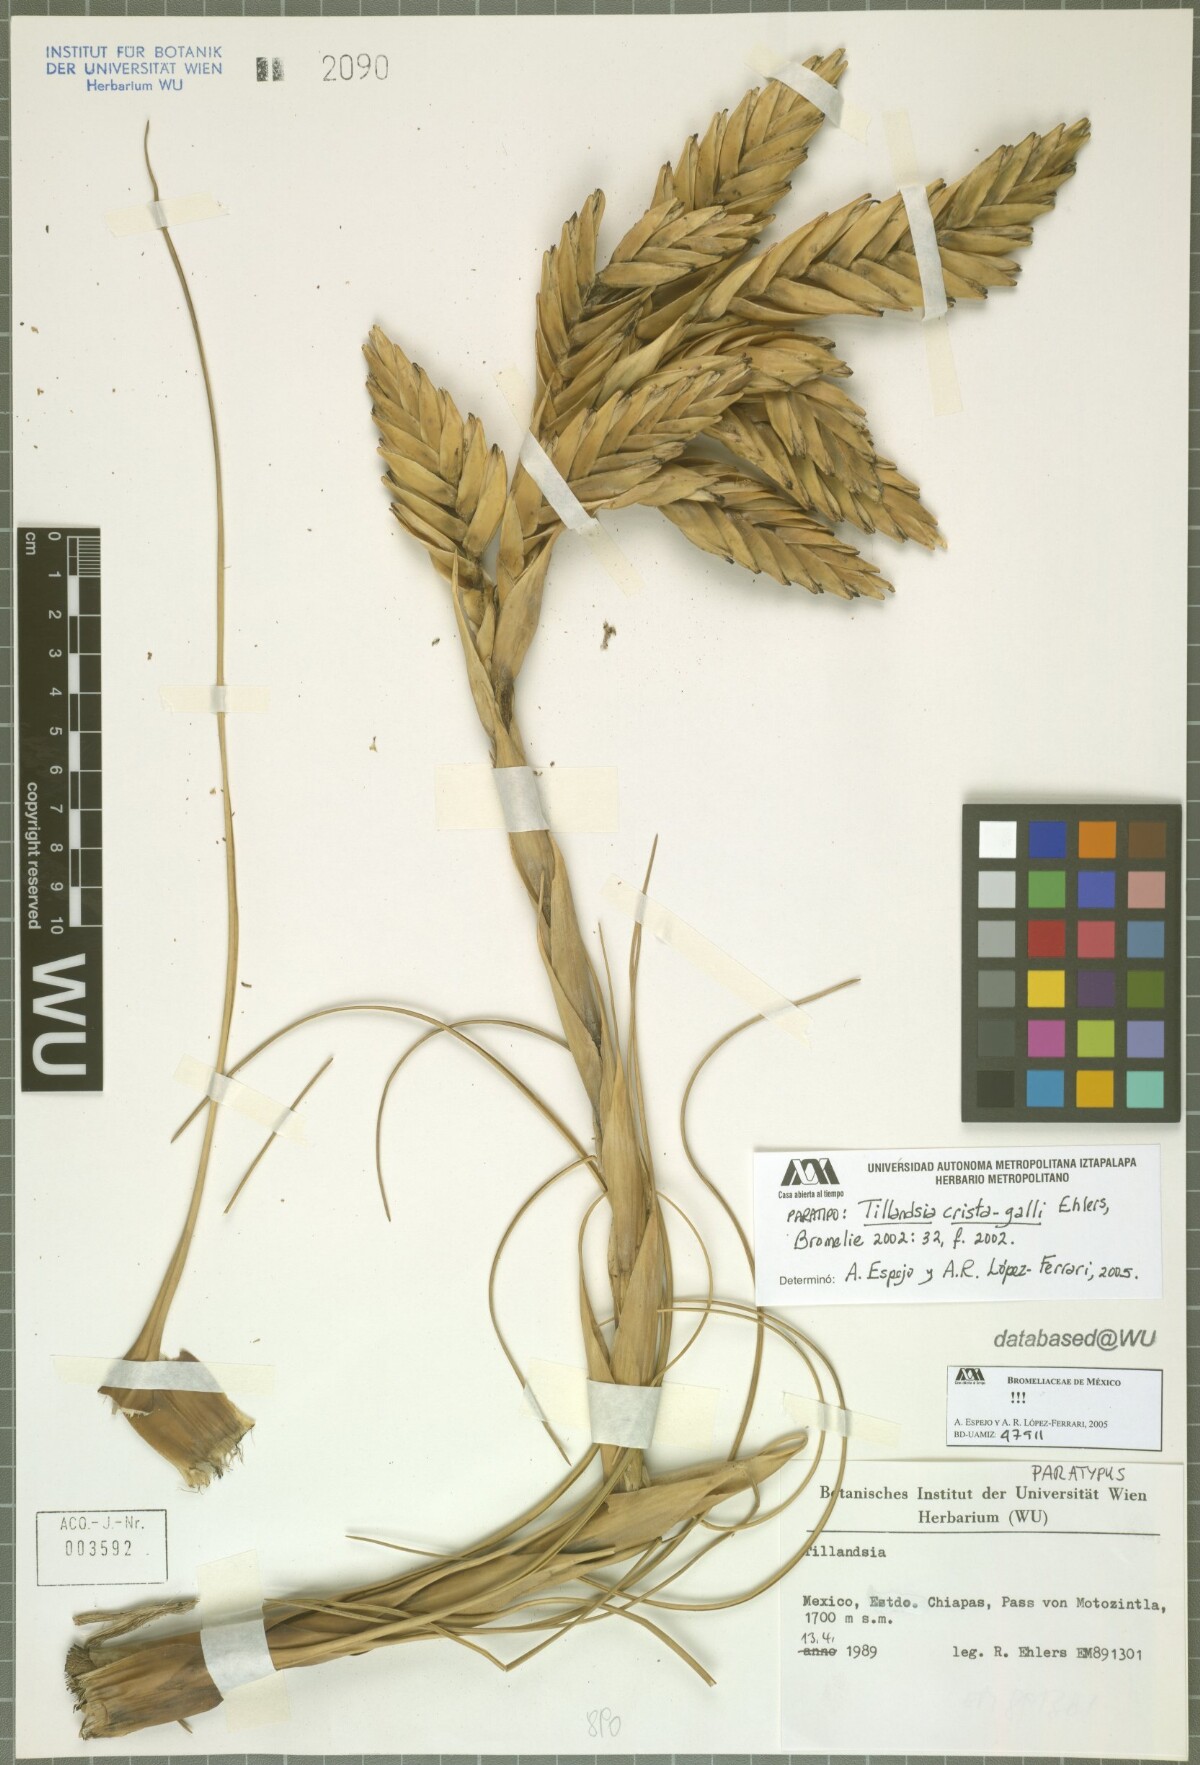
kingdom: Plantae
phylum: Tracheophyta
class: Liliopsida
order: Poales
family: Bromeliaceae
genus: Tillandsia
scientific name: Tillandsia crista-galli
